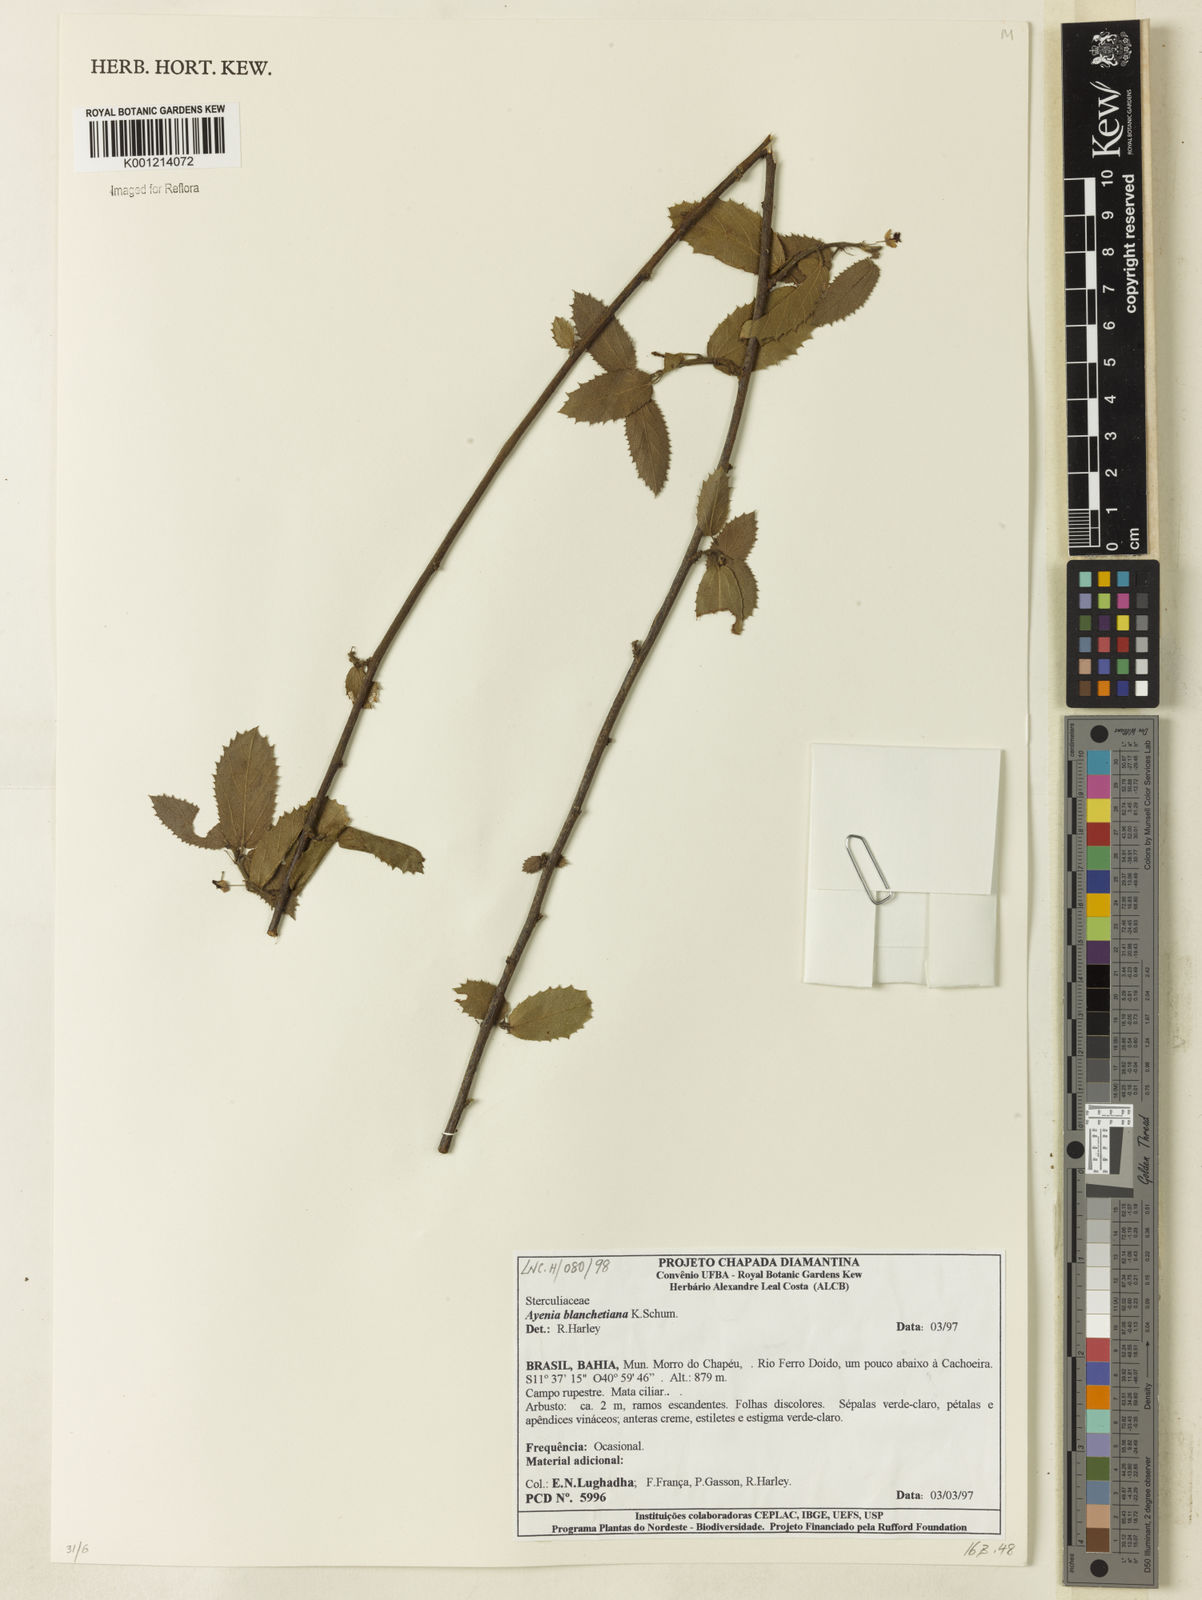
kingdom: Plantae
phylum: Tracheophyta
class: Magnoliopsida
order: Malvales
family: Malvaceae
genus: Ayenia
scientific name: Ayenia blanchetiana
